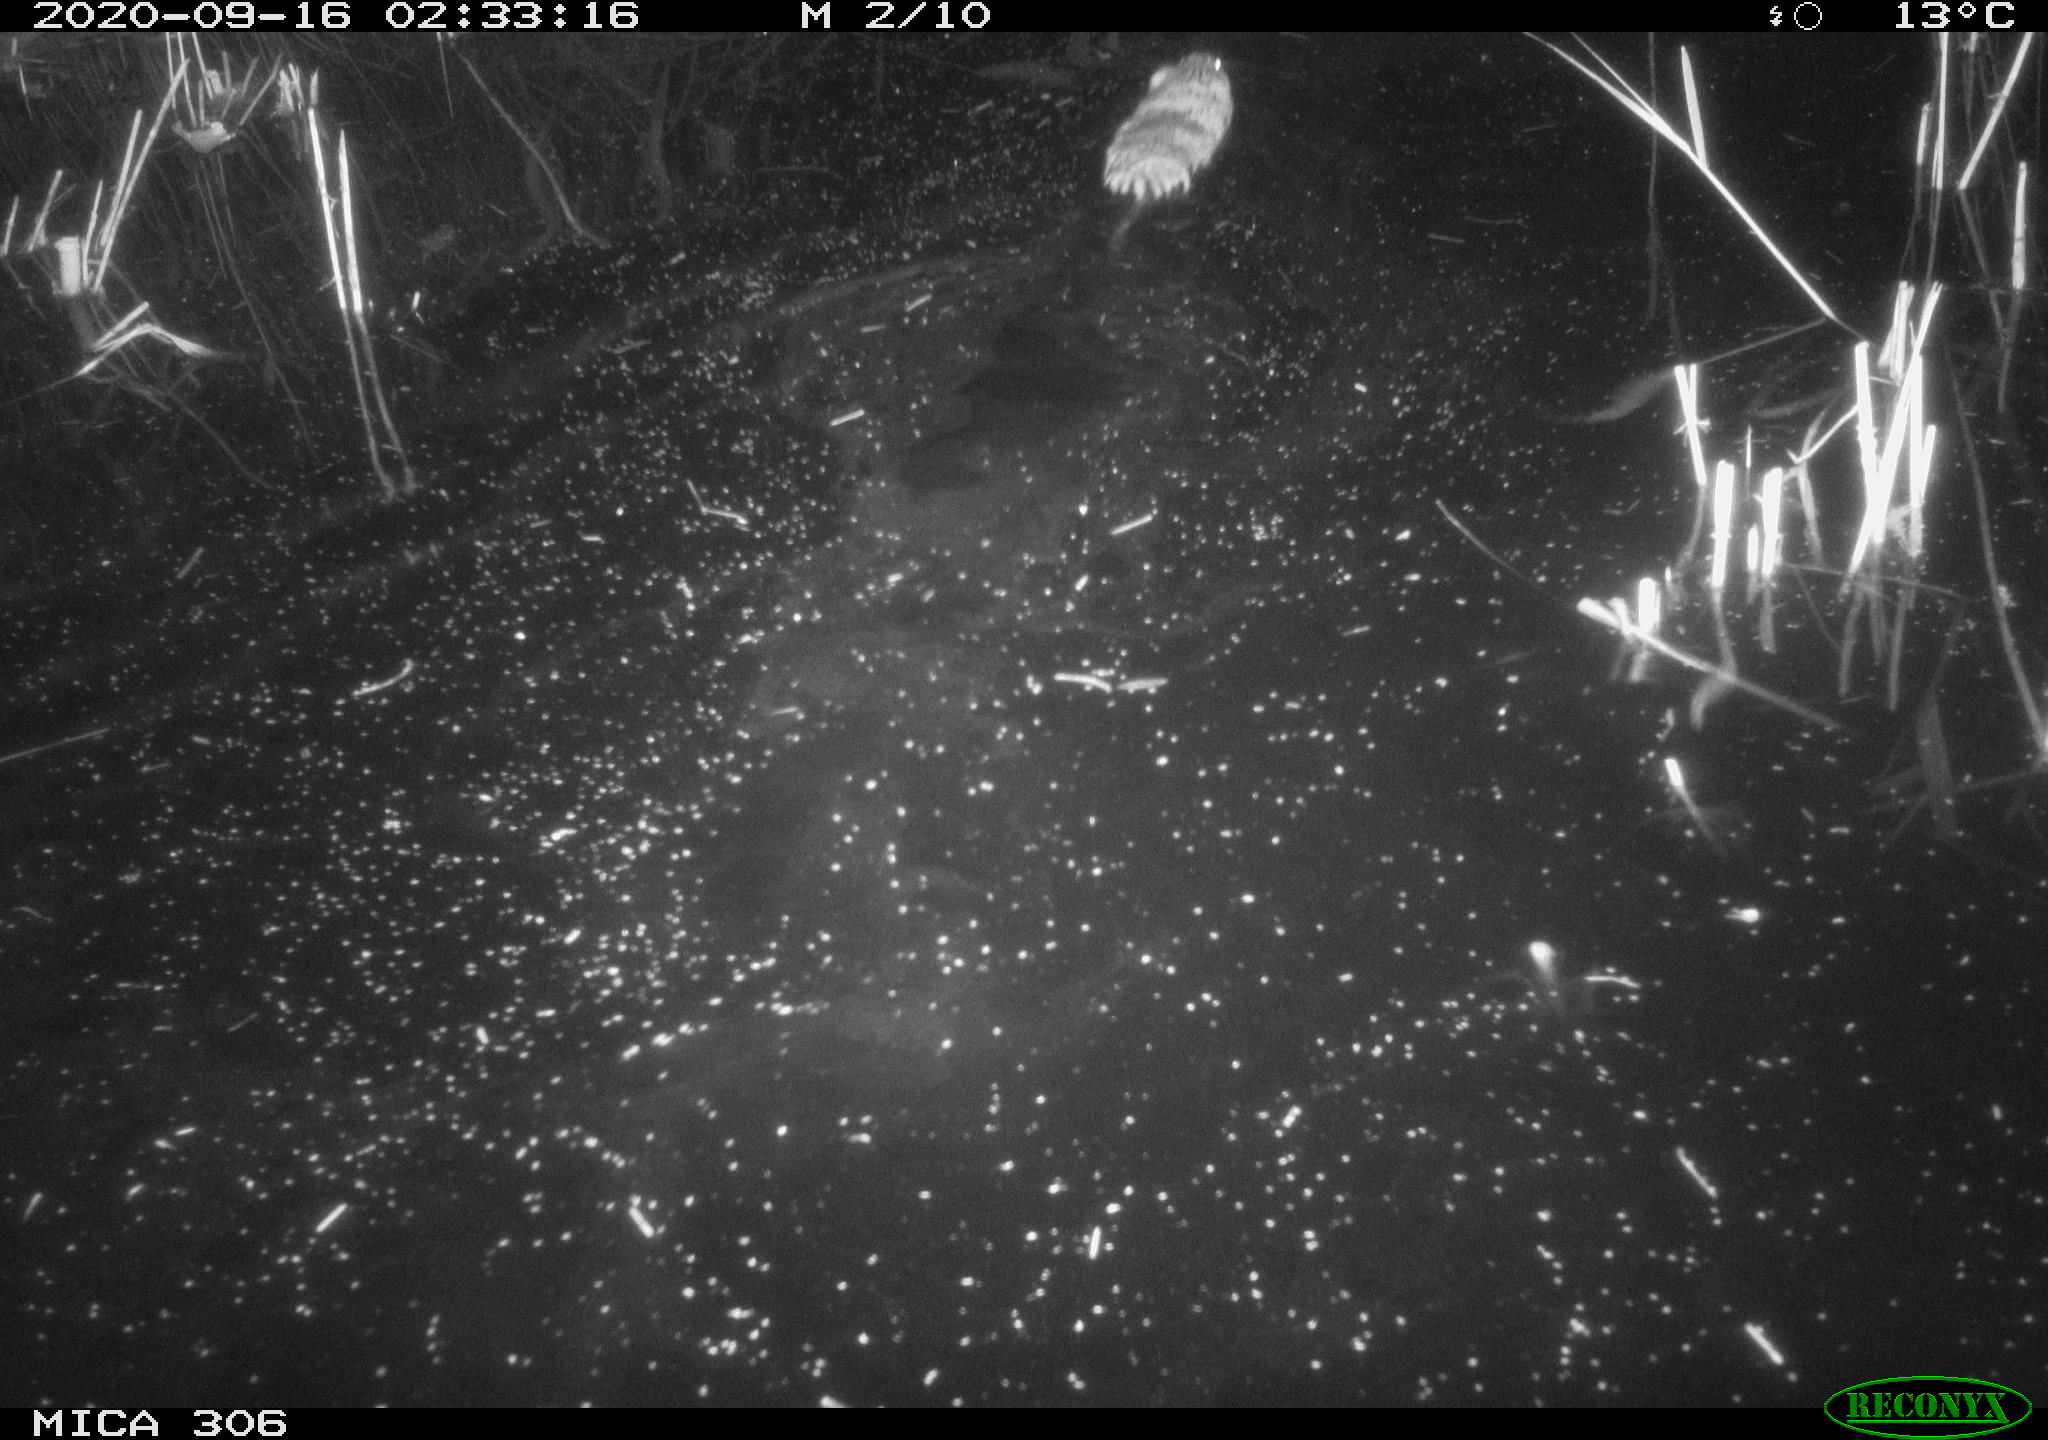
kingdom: Animalia
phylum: Chordata
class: Mammalia
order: Rodentia
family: Cricetidae
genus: Ondatra
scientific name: Ondatra zibethicus
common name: Muskrat
